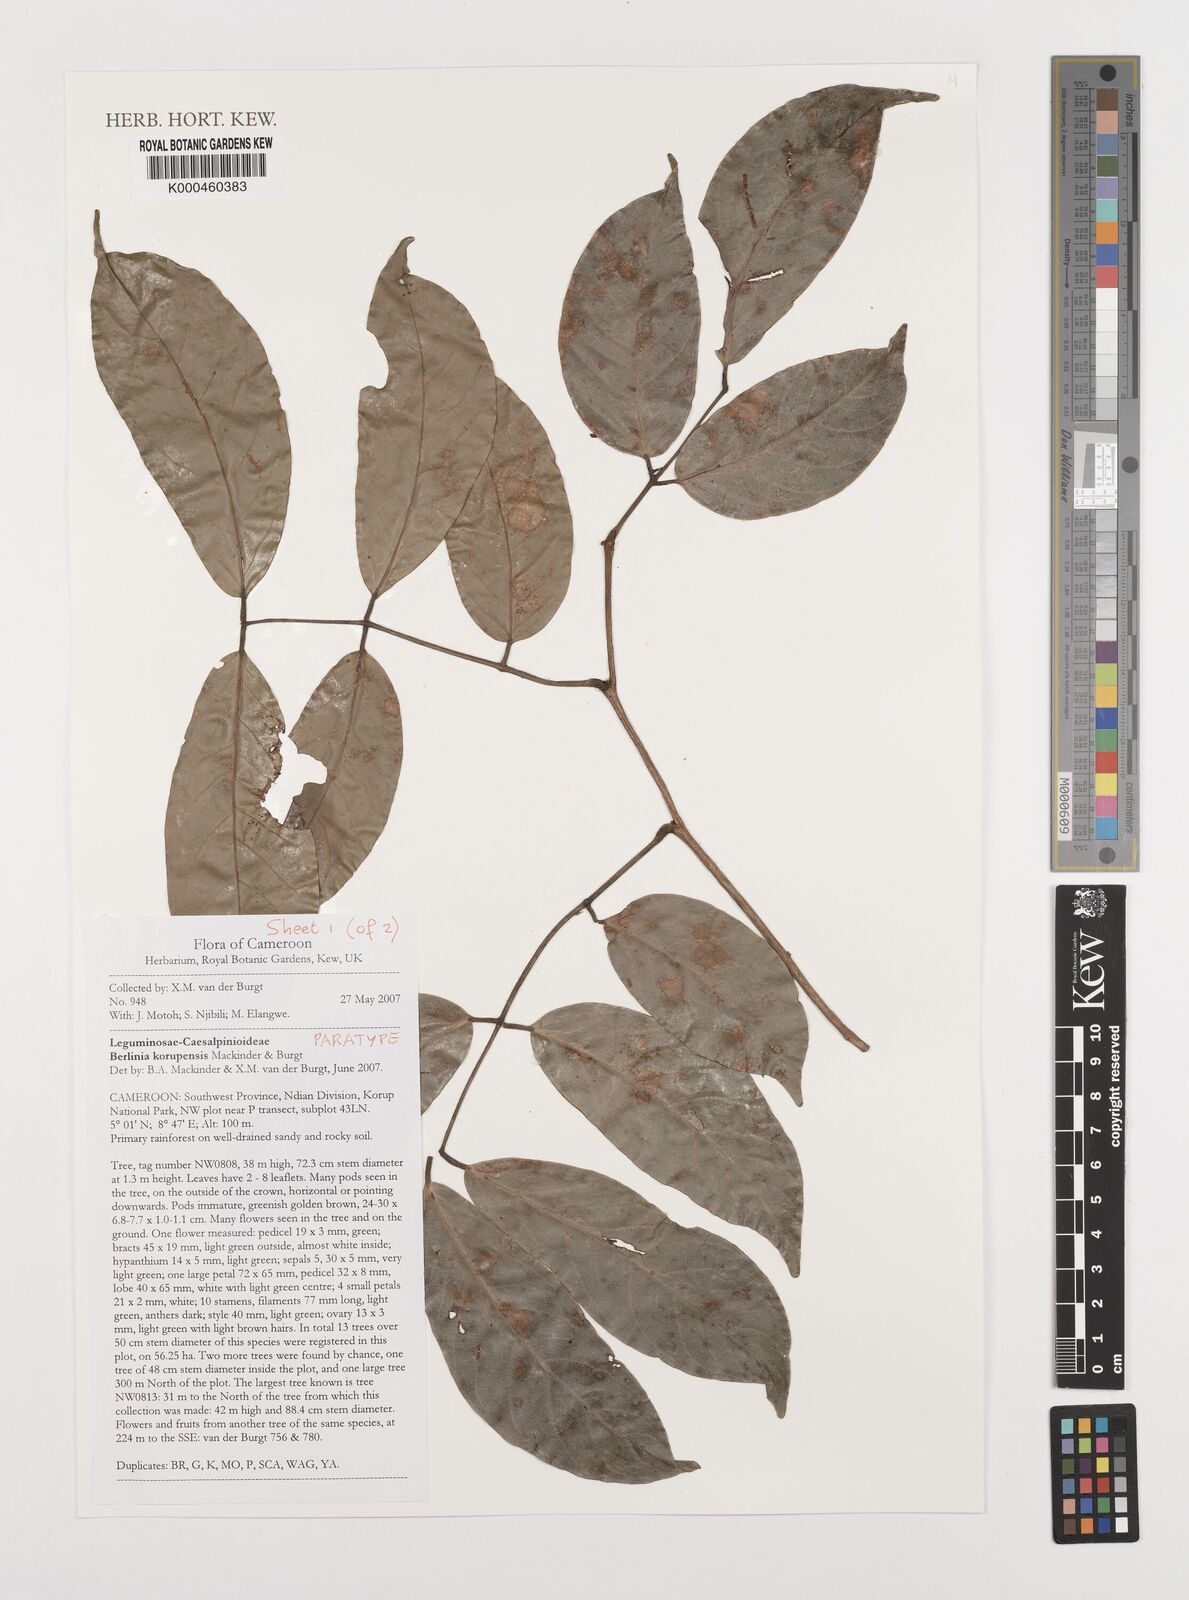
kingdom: Plantae
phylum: Tracheophyta
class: Magnoliopsida
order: Fabales
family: Fabaceae
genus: Berlinia
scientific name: Berlinia korupensis
